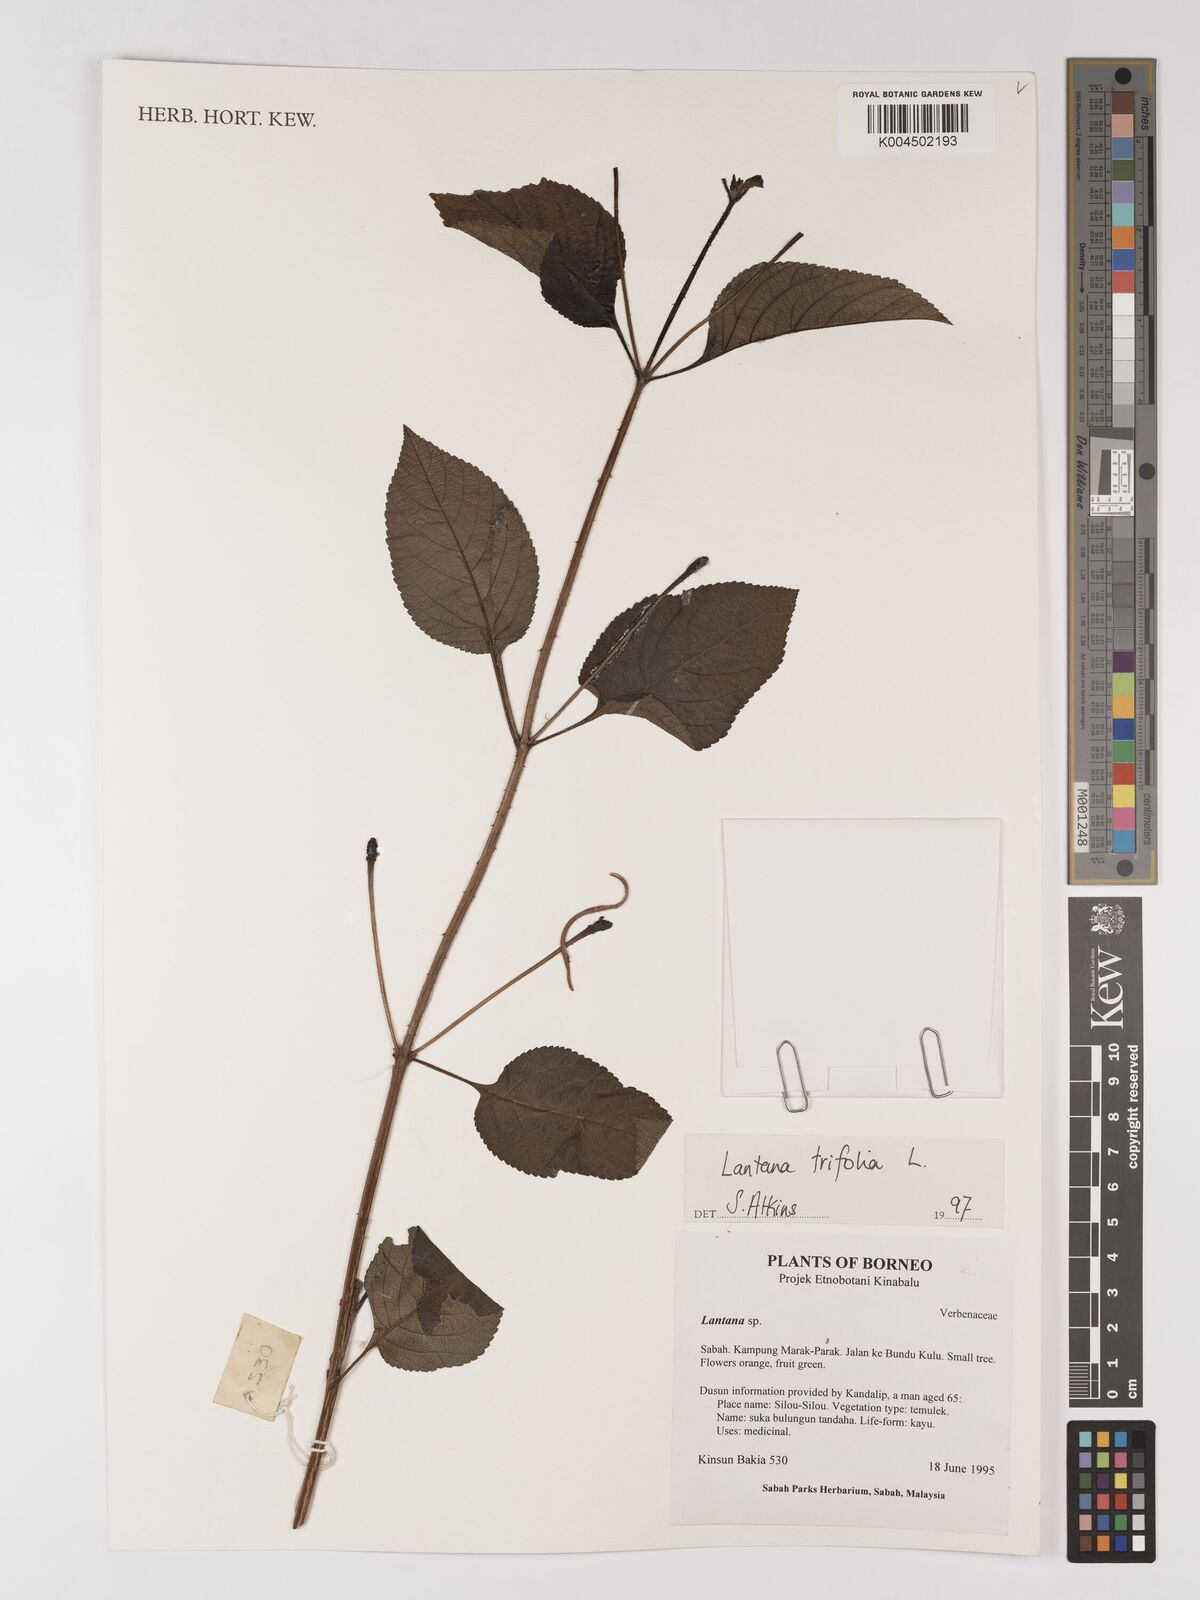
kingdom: Plantae
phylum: Tracheophyta
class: Magnoliopsida
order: Lamiales
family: Verbenaceae
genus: Lantana
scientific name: Lantana trifolia
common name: Sweet-sage
